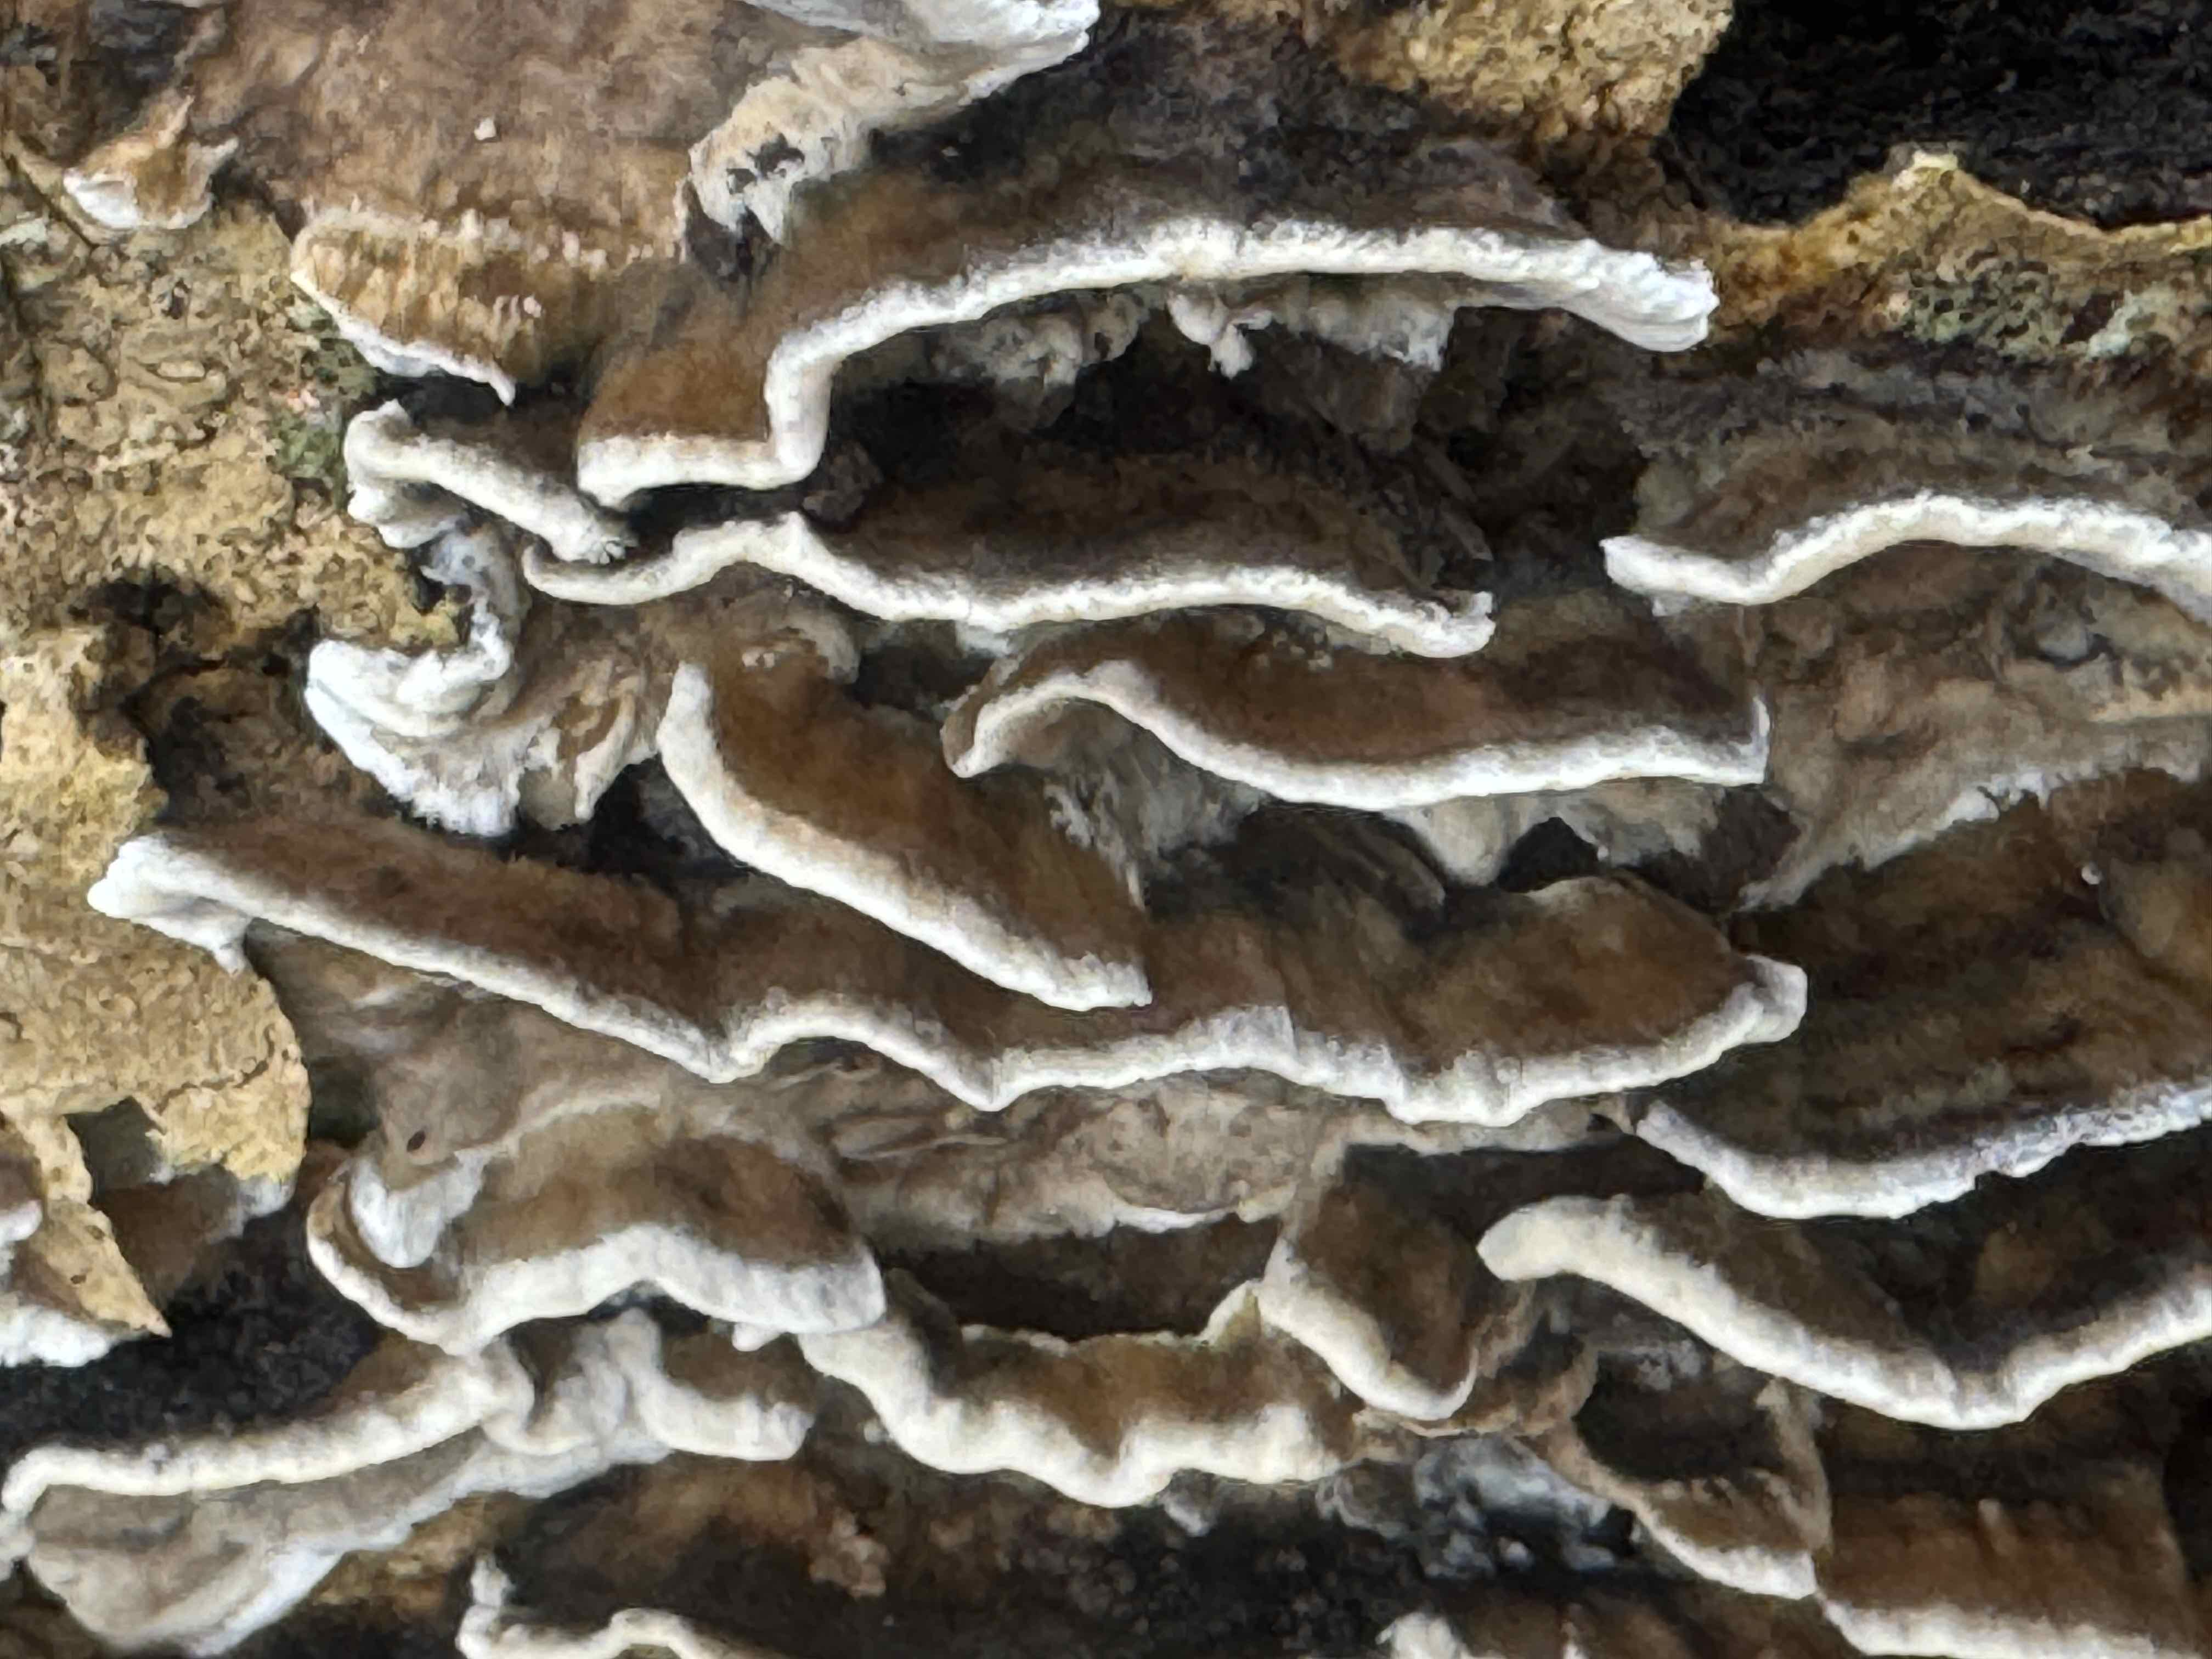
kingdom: Fungi
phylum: Basidiomycota
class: Agaricomycetes
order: Polyporales
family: Phanerochaetaceae
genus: Bjerkandera
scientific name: Bjerkandera adusta
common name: sveden sodporesvamp
